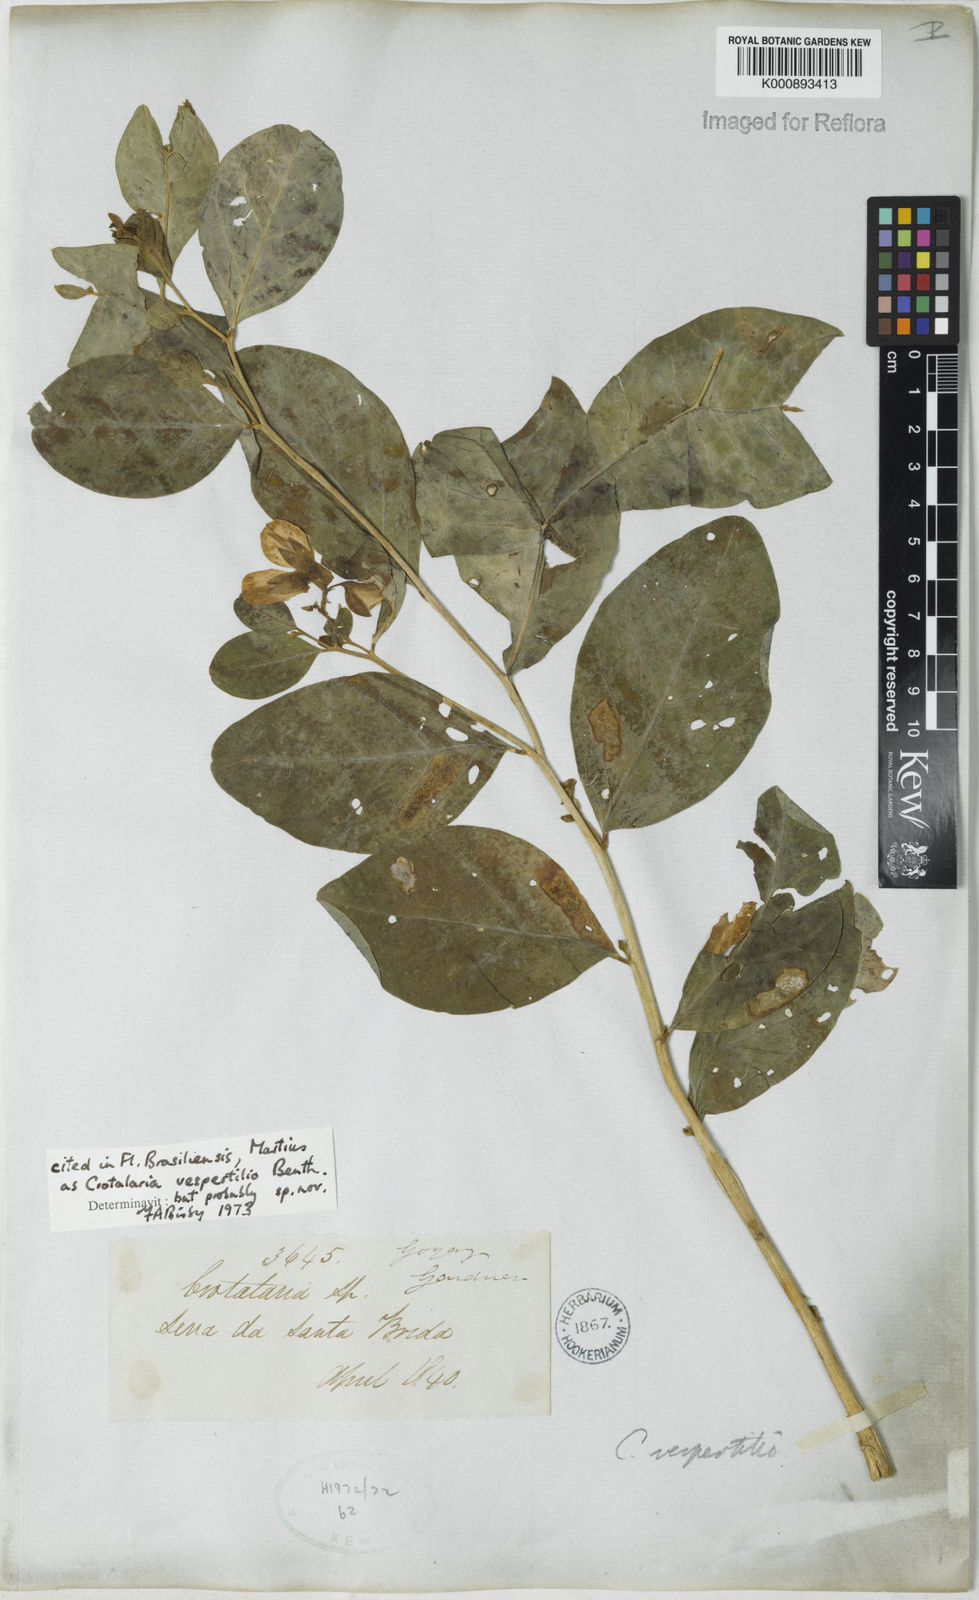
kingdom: Plantae
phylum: Tracheophyta
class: Magnoliopsida
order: Fabales
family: Fabaceae
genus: Crotalaria
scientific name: Crotalaria vespertilio
